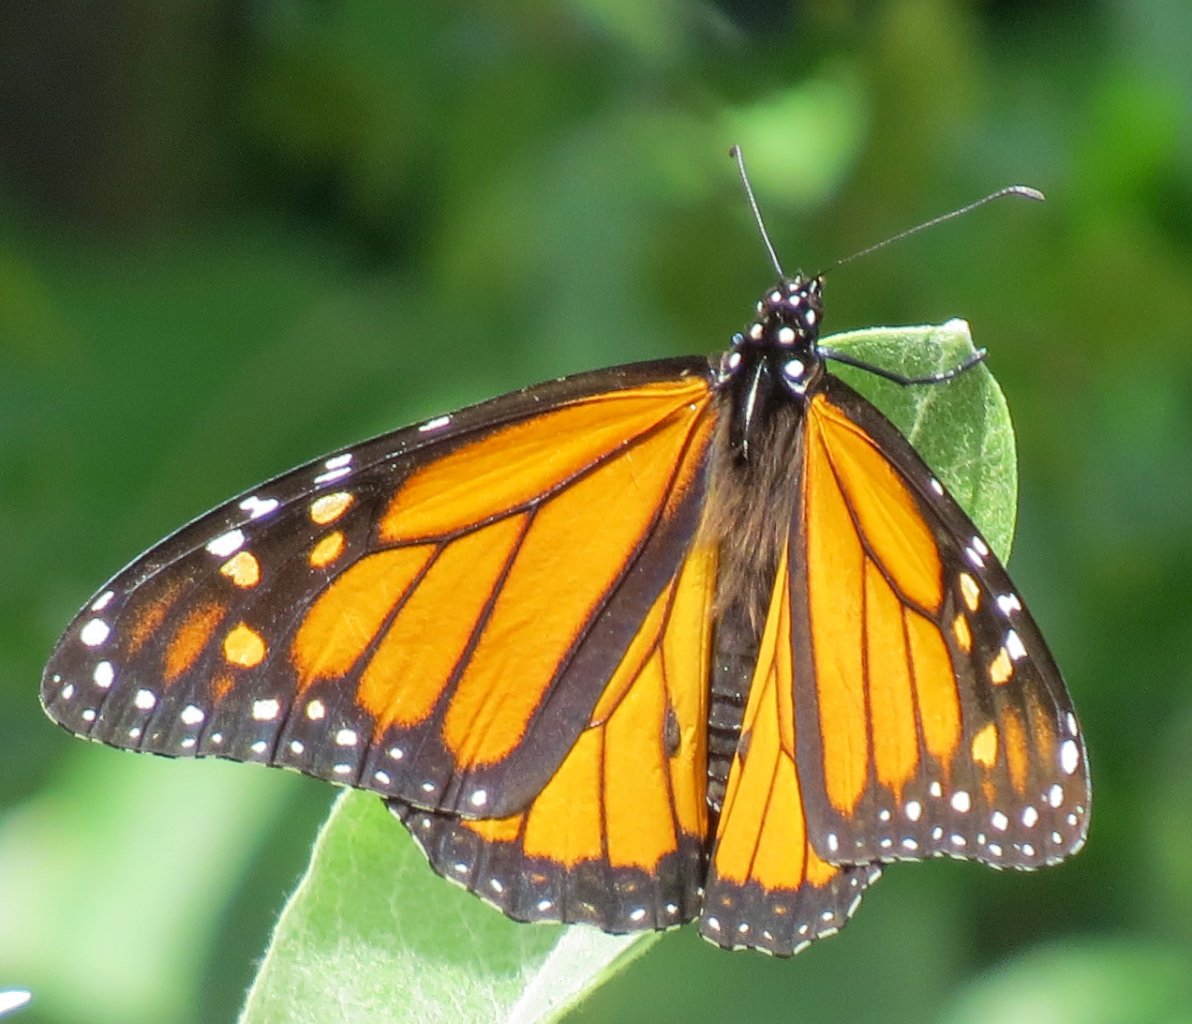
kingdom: Animalia
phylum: Arthropoda
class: Insecta
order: Lepidoptera
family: Nymphalidae
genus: Danaus
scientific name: Danaus plexippus
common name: Monarch
